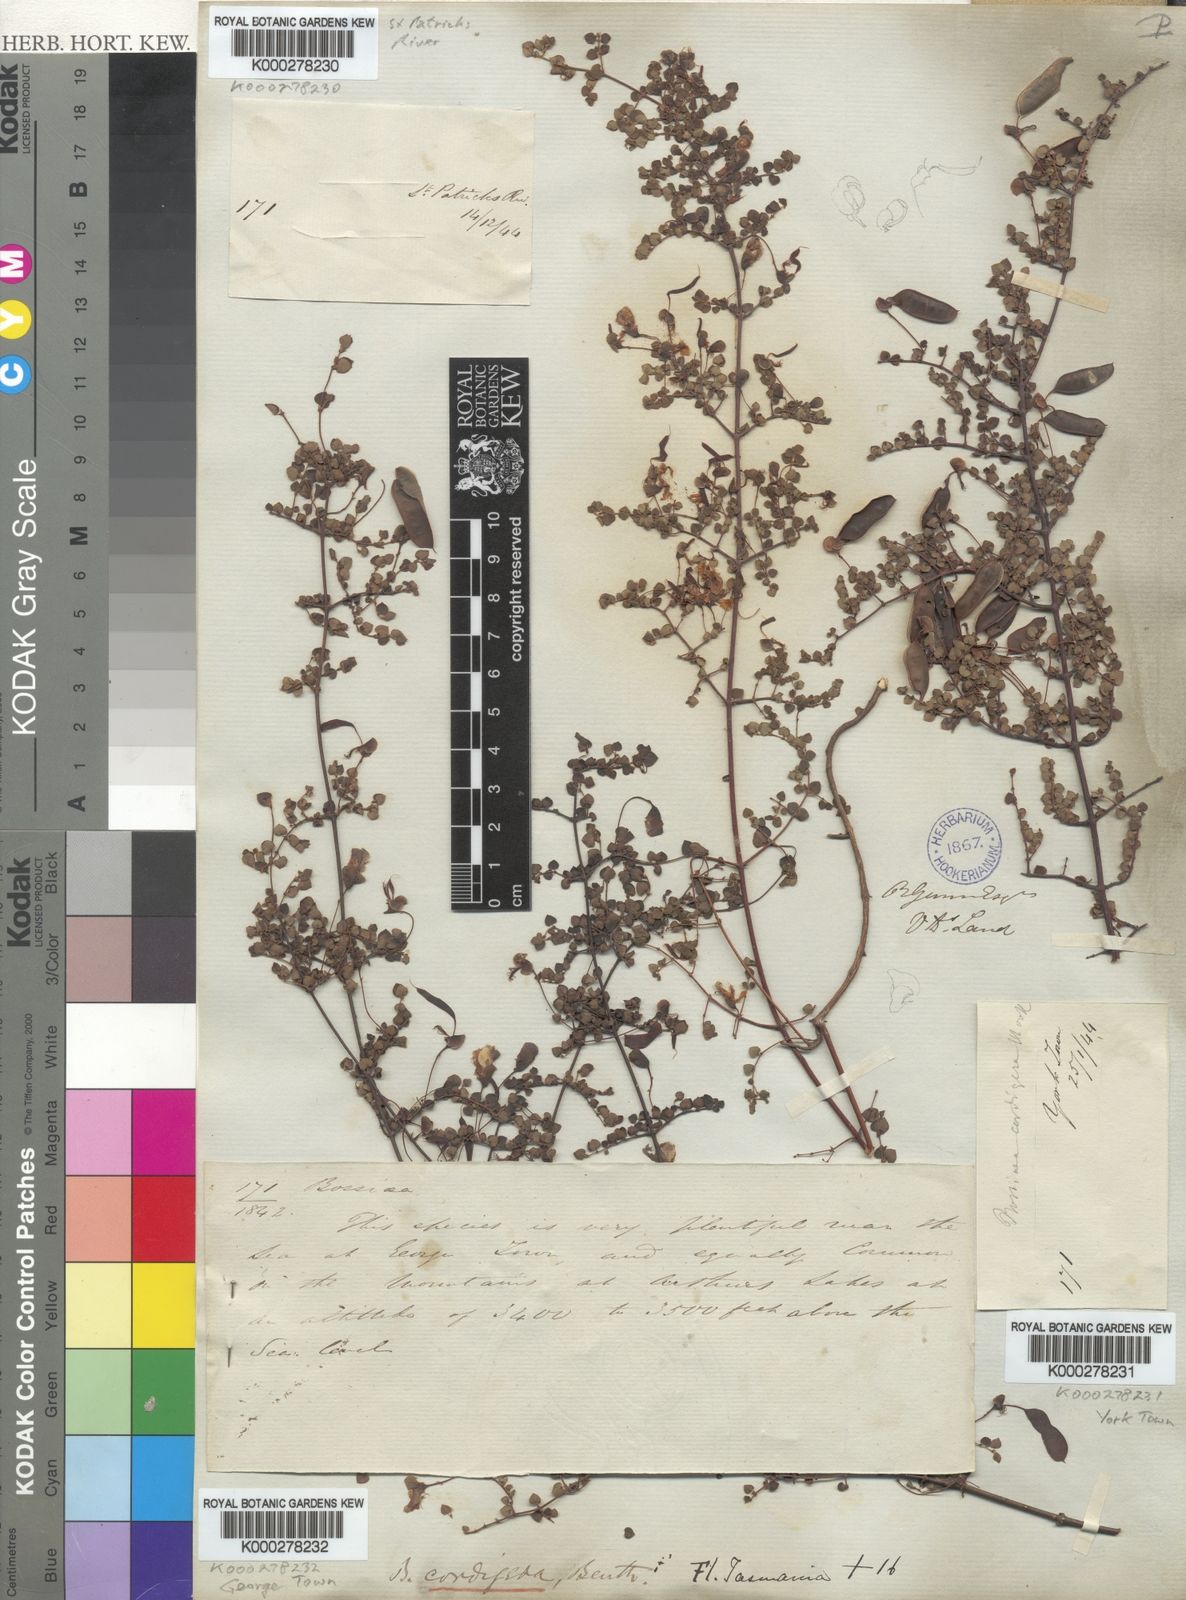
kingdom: Plantae
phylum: Tracheophyta
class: Magnoliopsida
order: Fabales
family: Fabaceae
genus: Bossiaea
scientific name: Bossiaea hendersonii
